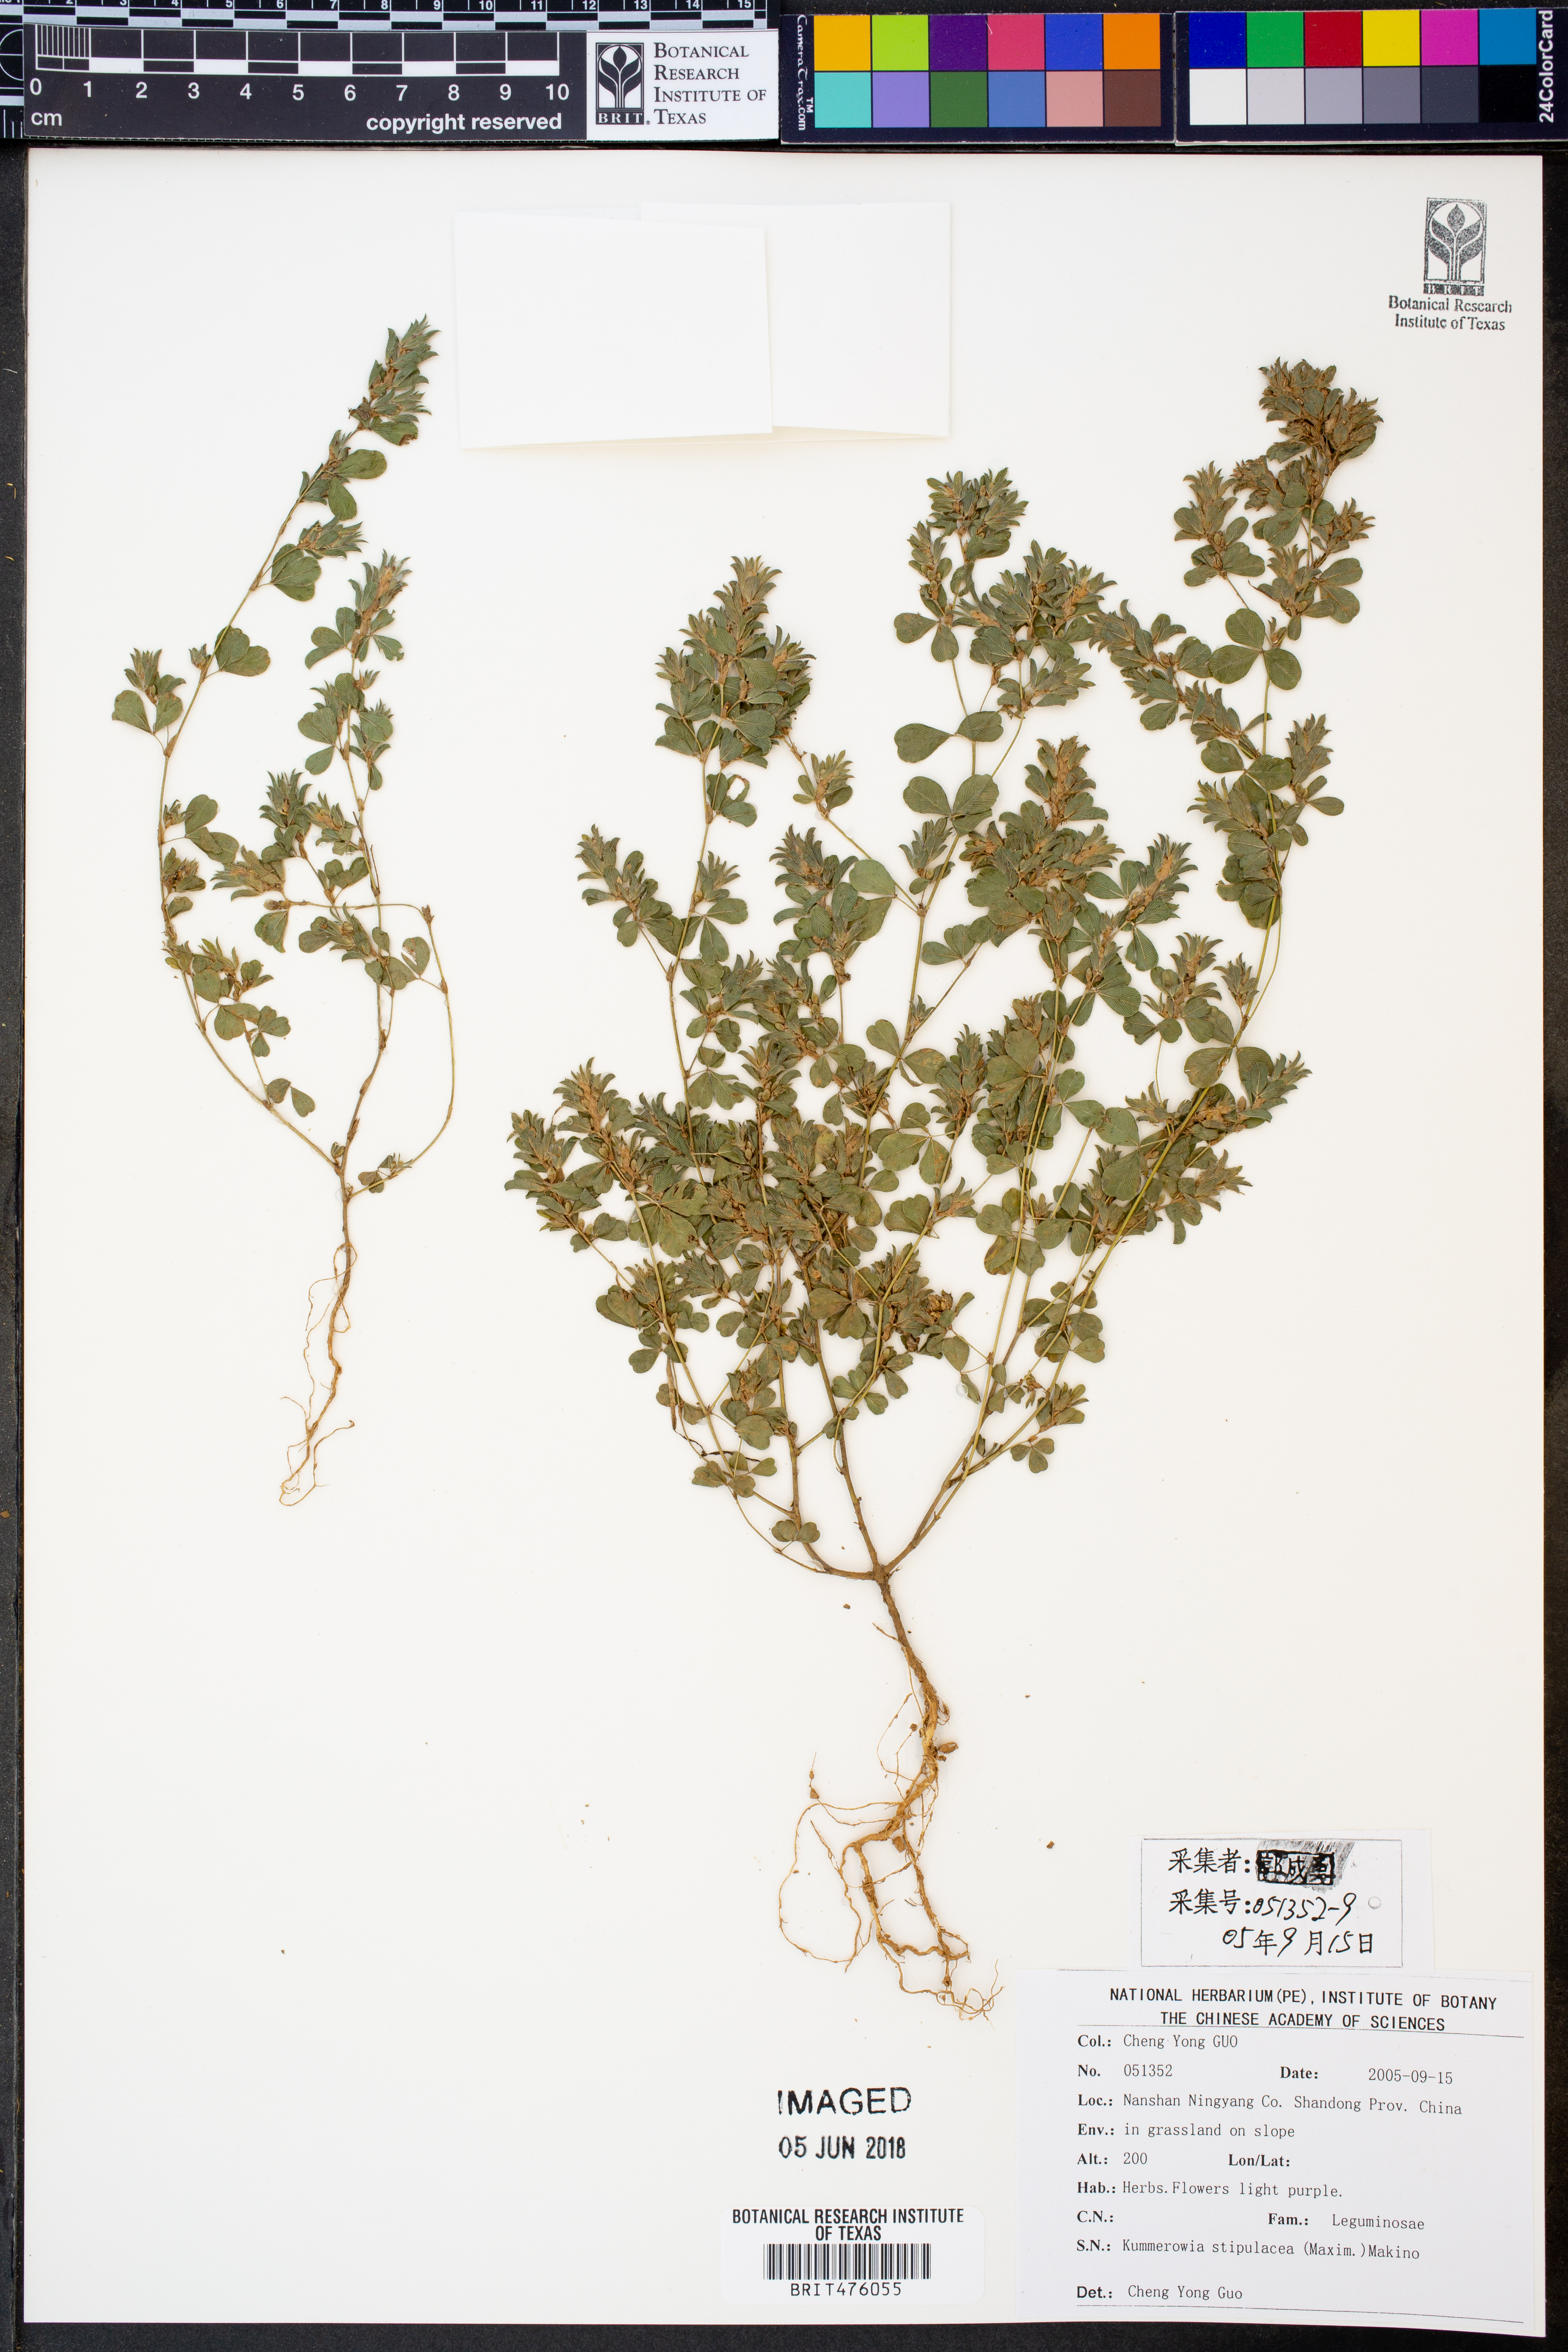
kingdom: Plantae
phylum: Tracheophyta
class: Magnoliopsida
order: Fabales
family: Fabaceae
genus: Kummerowia
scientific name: Kummerowia striata
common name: Japanese clover
